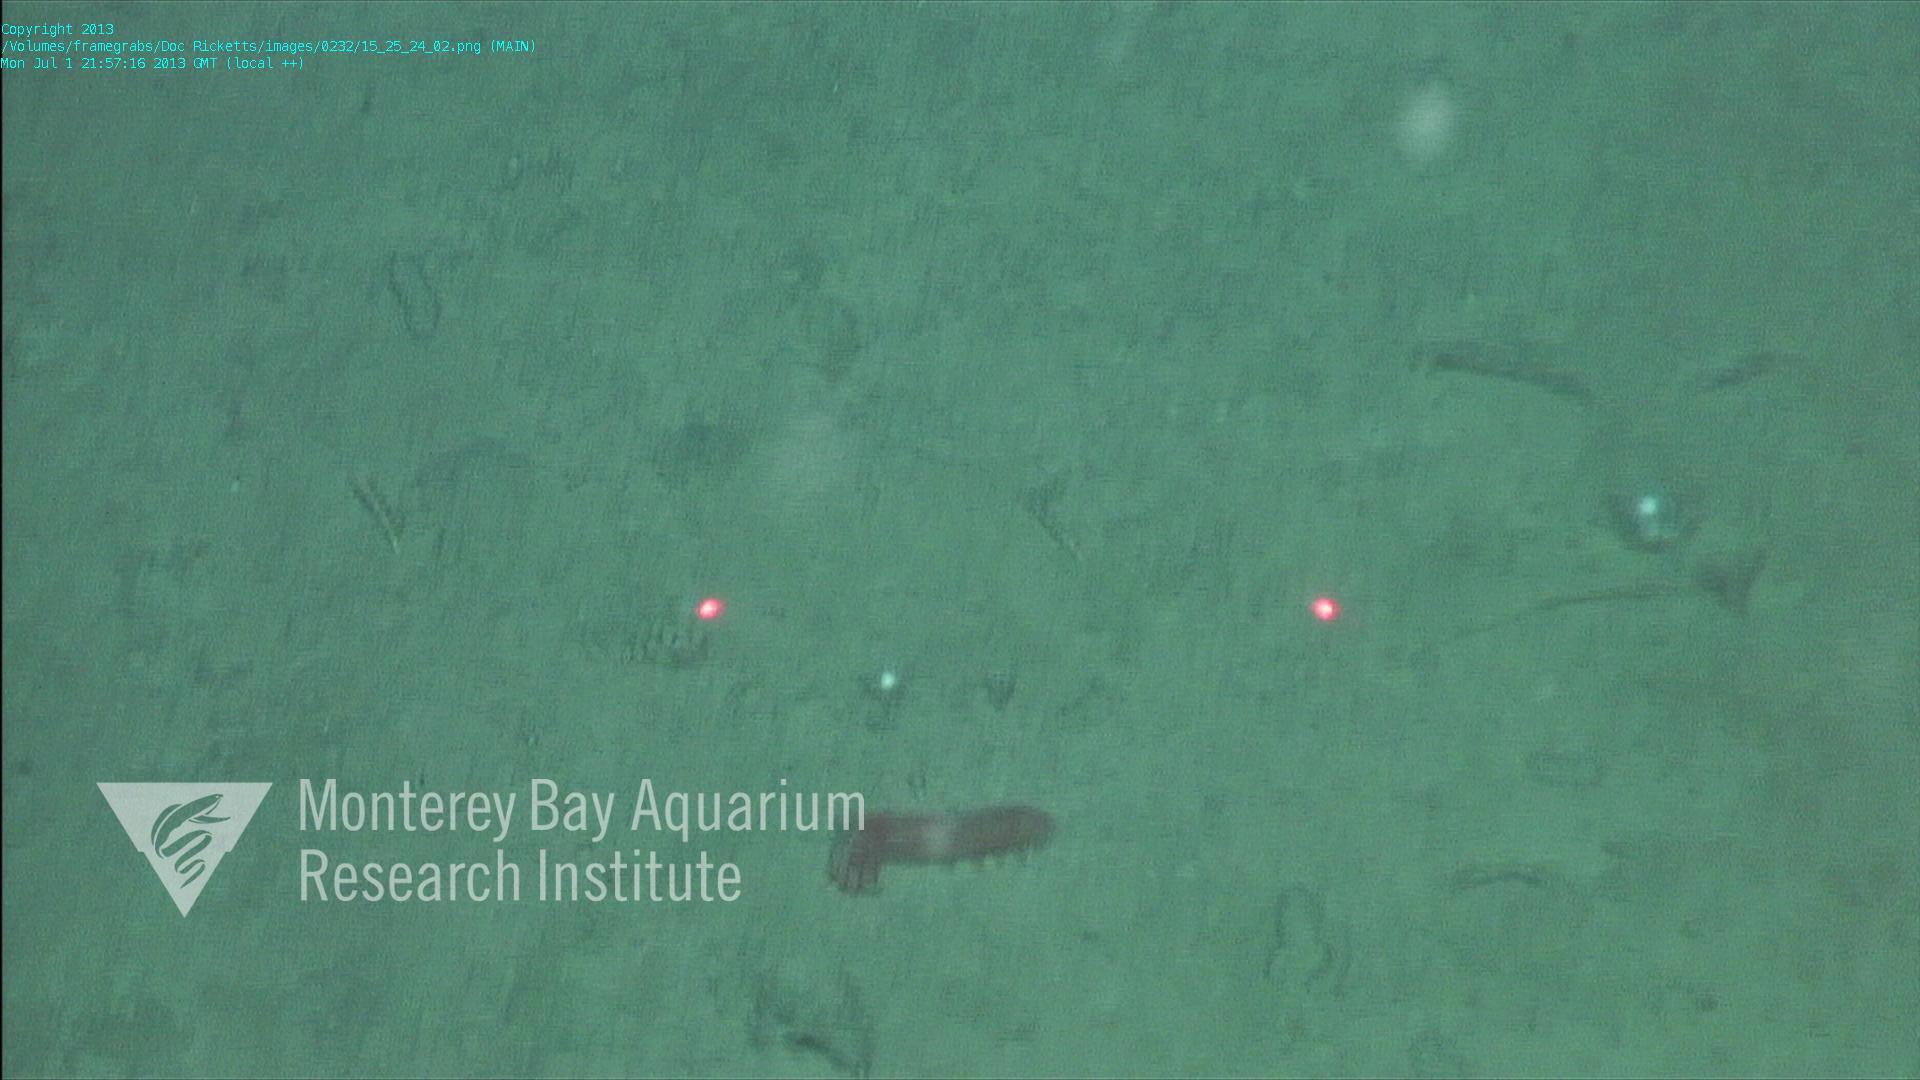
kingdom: Animalia
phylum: Porifera
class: Demospongiae
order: Poecilosclerida
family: Cladorhizidae
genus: Cladorhiza
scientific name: Cladorhiza
